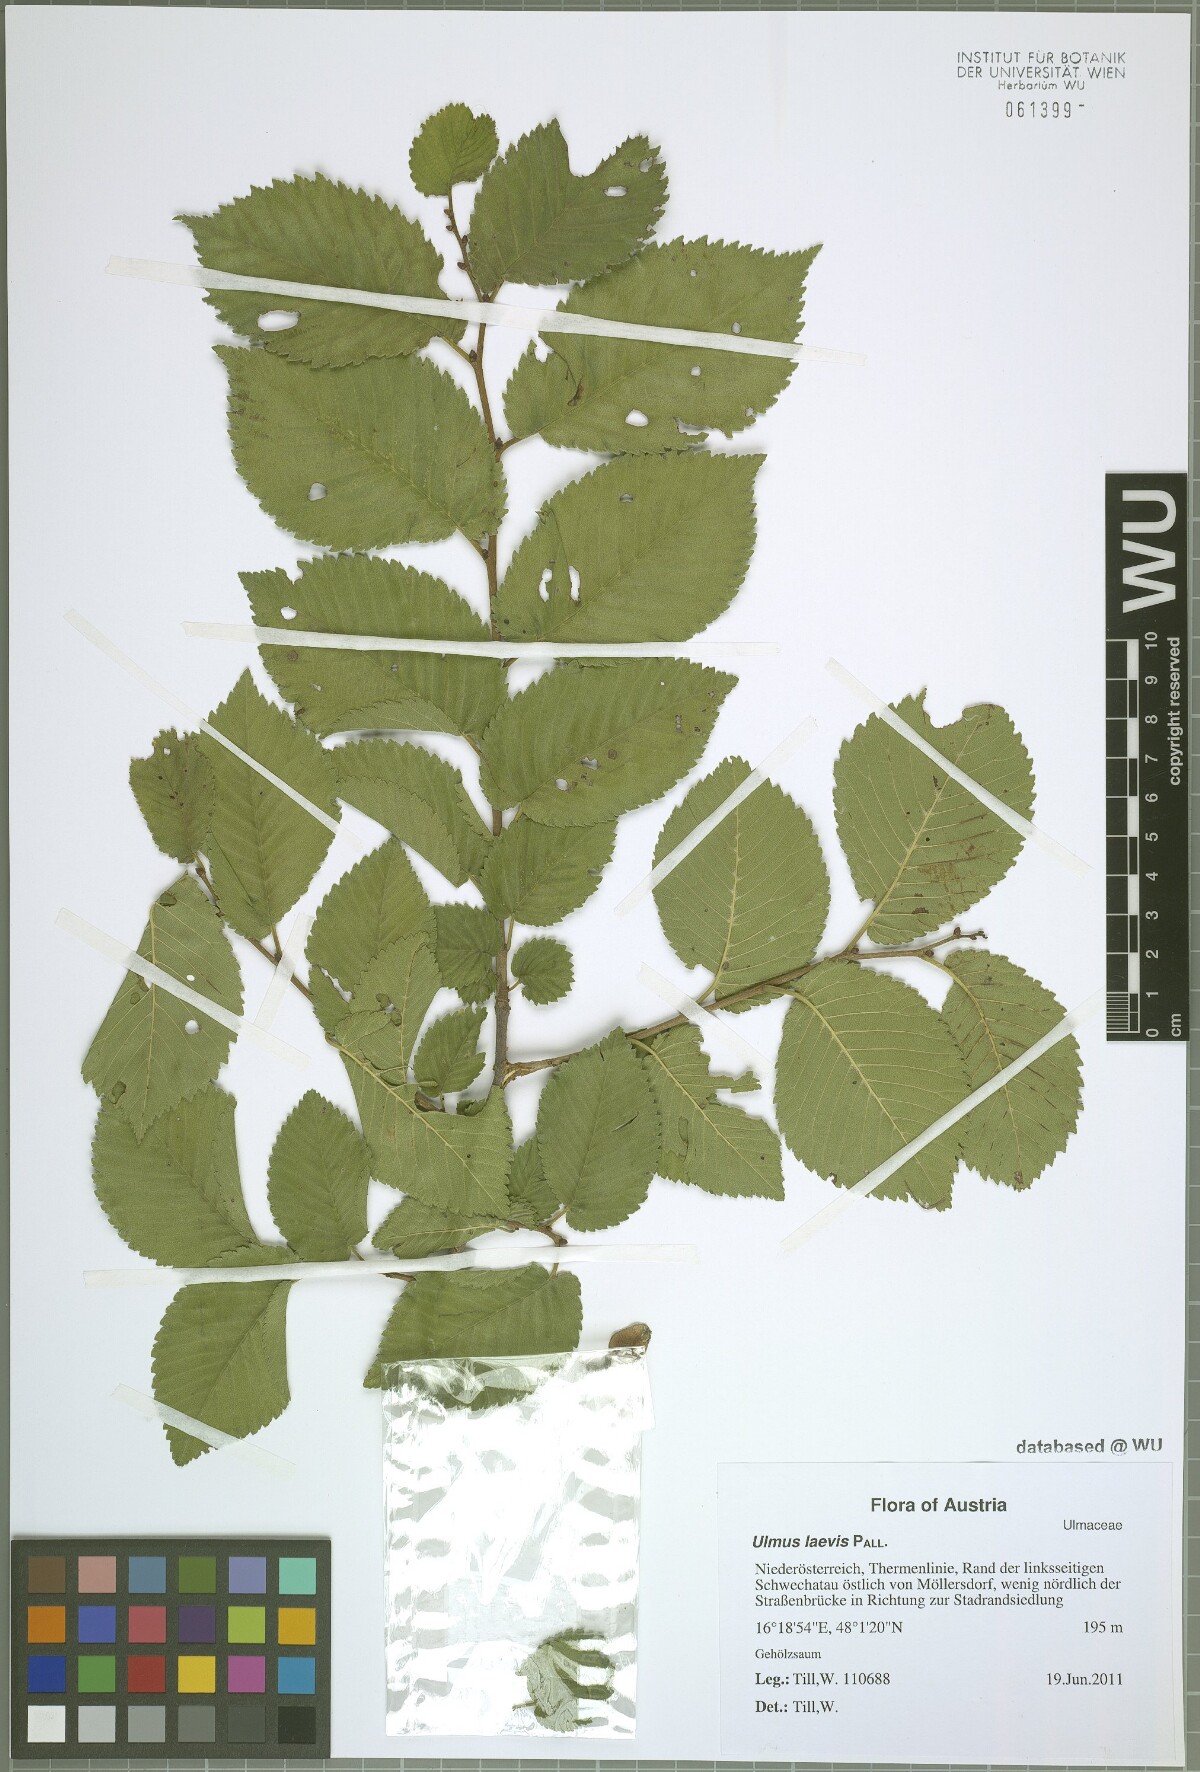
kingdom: Plantae
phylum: Tracheophyta
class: Magnoliopsida
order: Rosales
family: Ulmaceae
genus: Ulmus
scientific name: Ulmus laevis
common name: European white-elm
